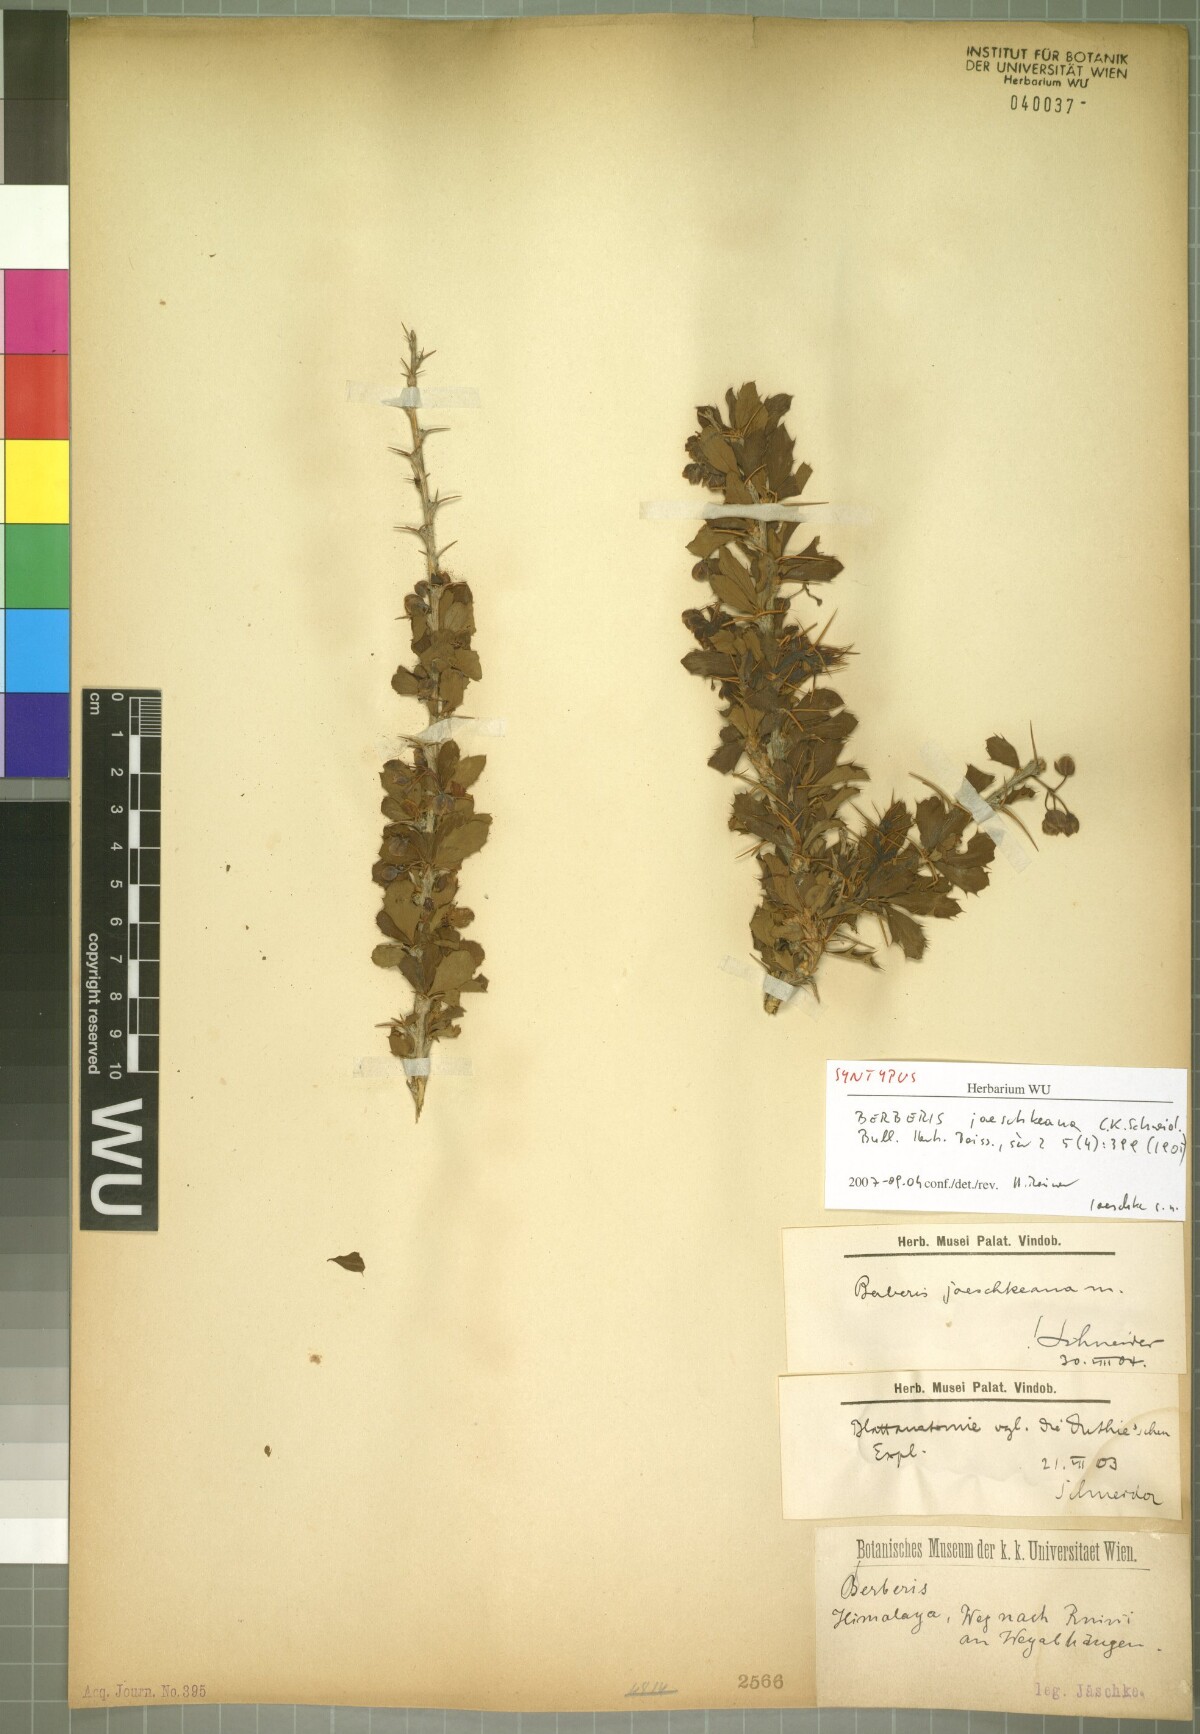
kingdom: Plantae
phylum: Tracheophyta
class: Magnoliopsida
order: Ranunculales
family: Berberidaceae
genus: Berberis
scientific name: Berberis jaeschkeana
